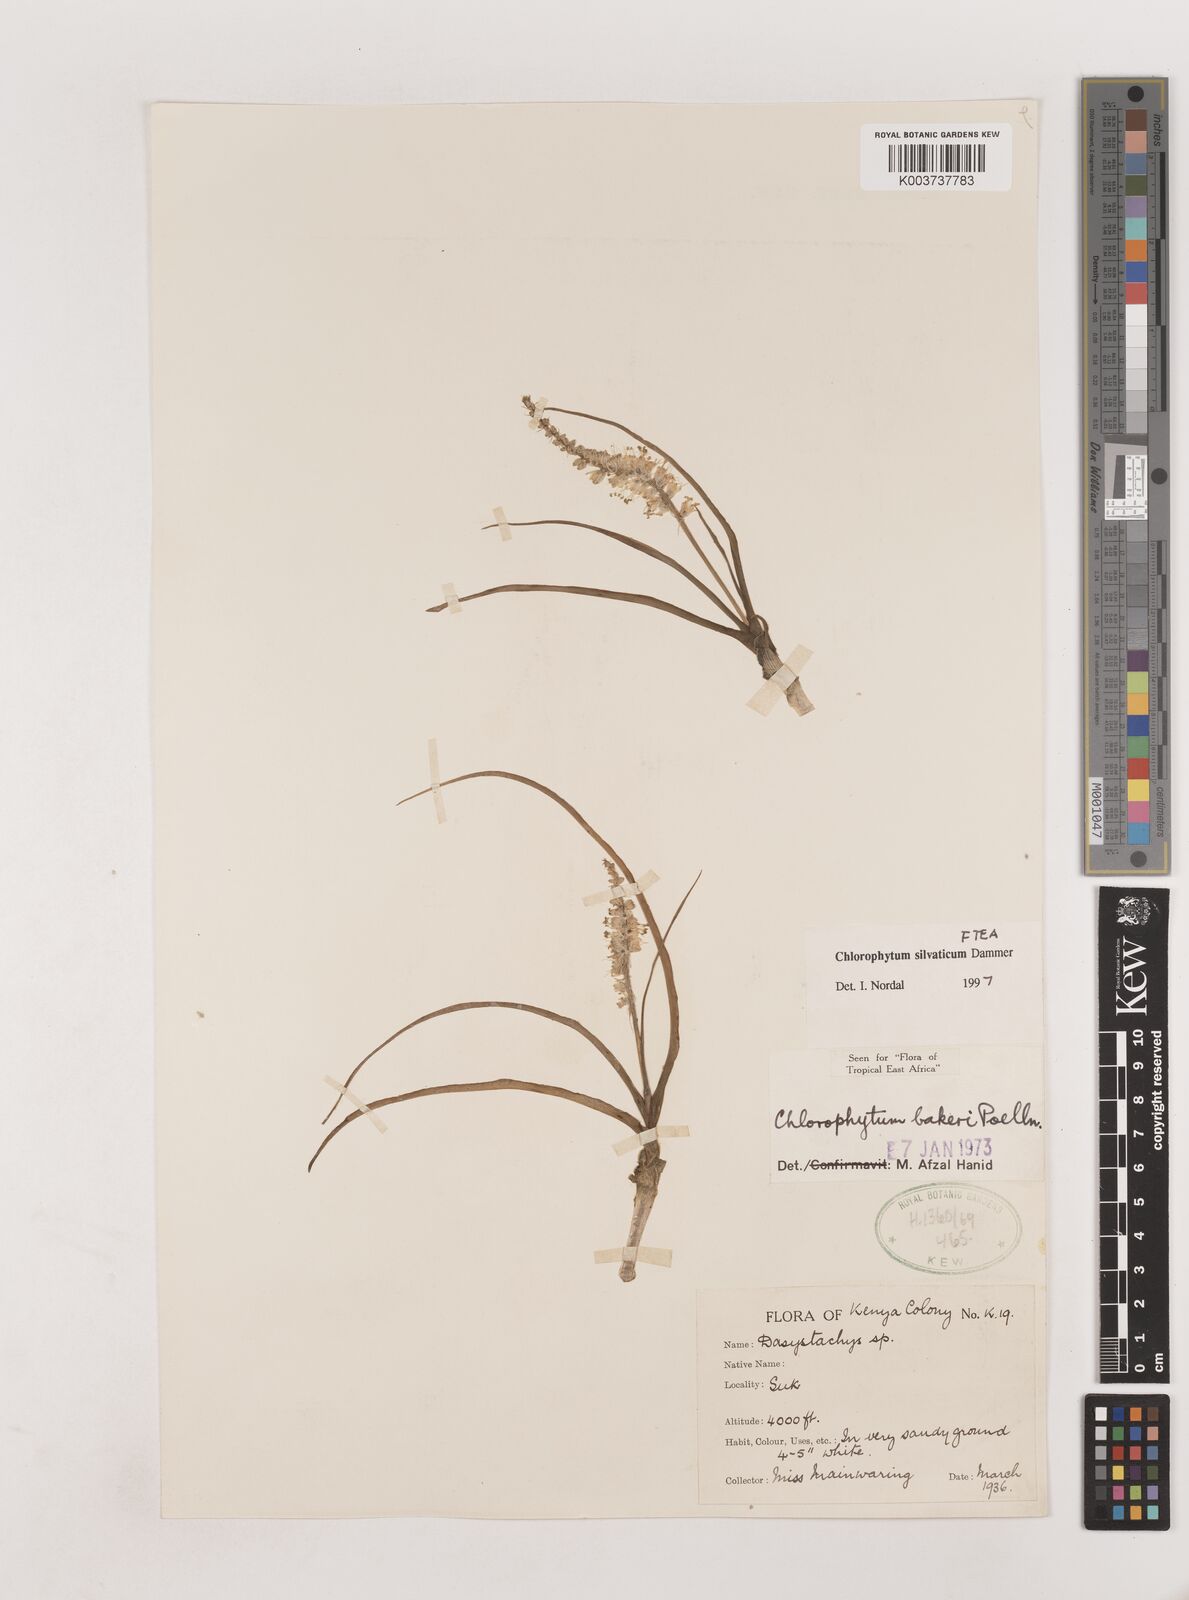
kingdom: Plantae
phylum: Tracheophyta
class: Liliopsida
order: Asparagales
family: Asparagaceae
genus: Chlorophytum
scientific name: Chlorophytum africanum
